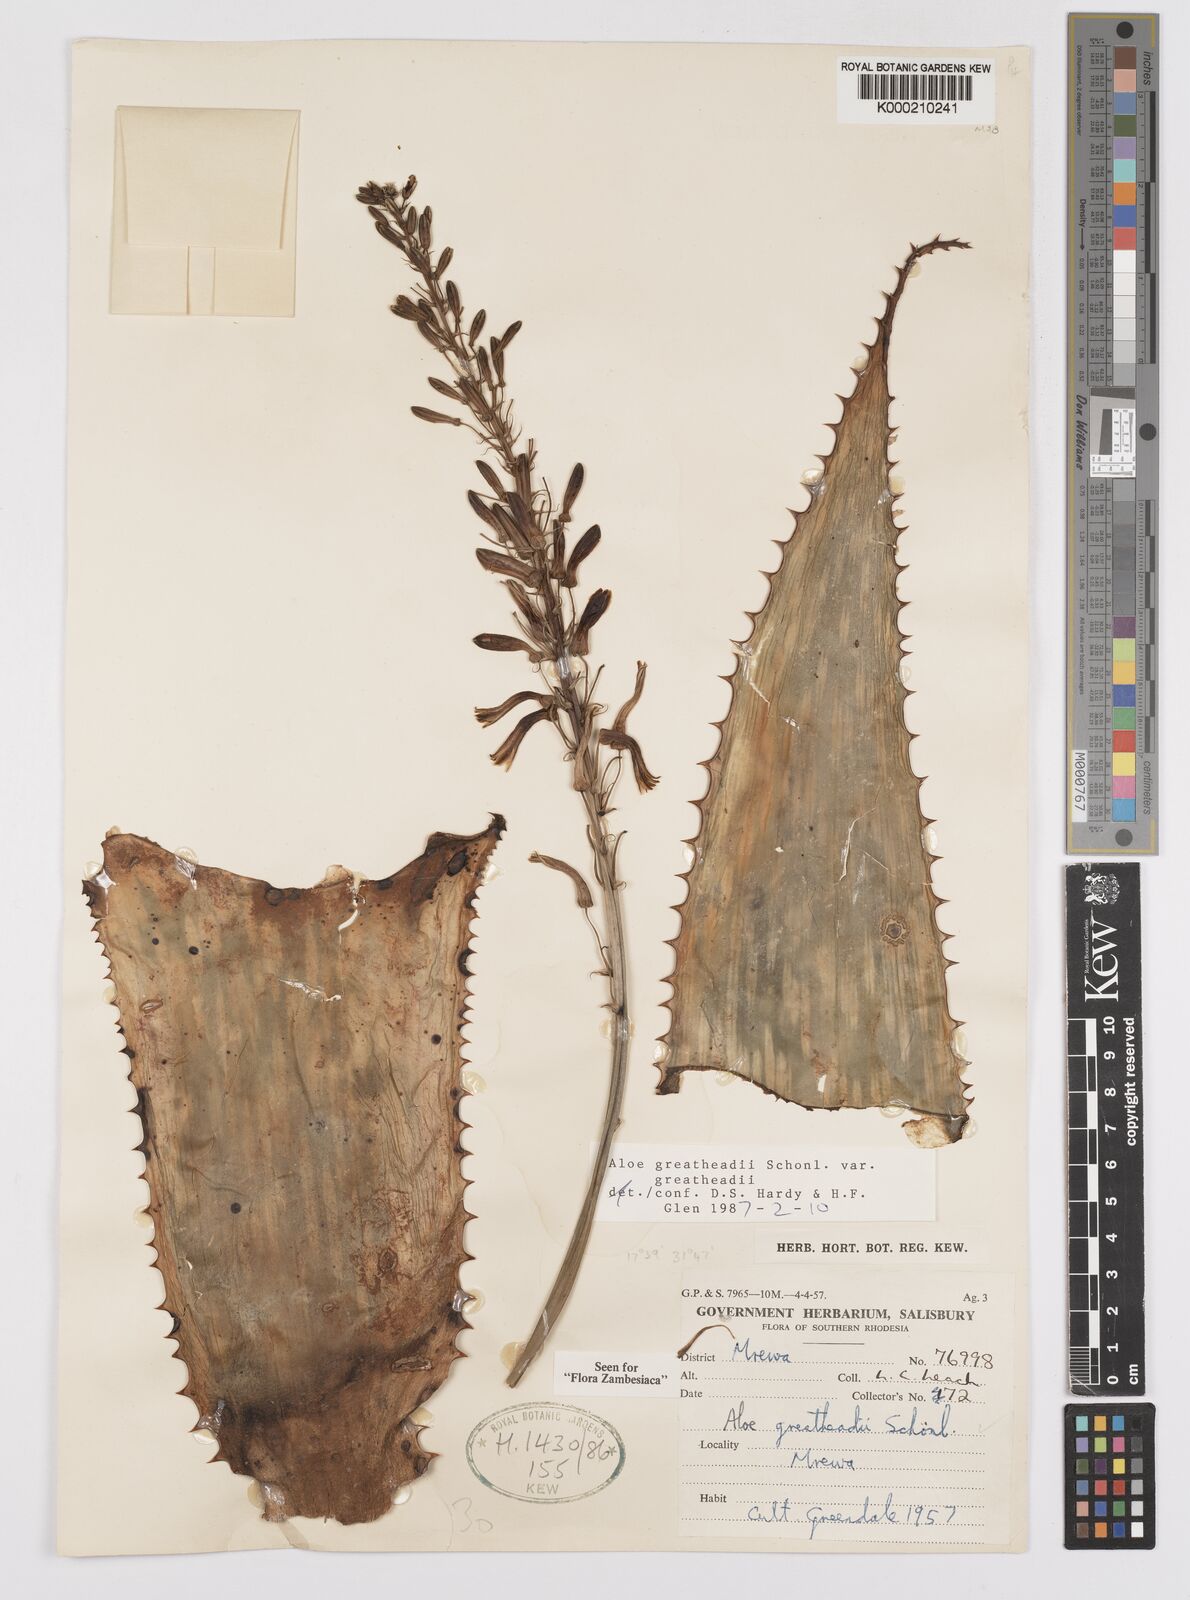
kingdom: Plantae
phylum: Tracheophyta
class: Liliopsida
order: Asparagales
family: Asphodelaceae
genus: Aloe
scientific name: Aloe greatheadii
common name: Greathead's aloe
